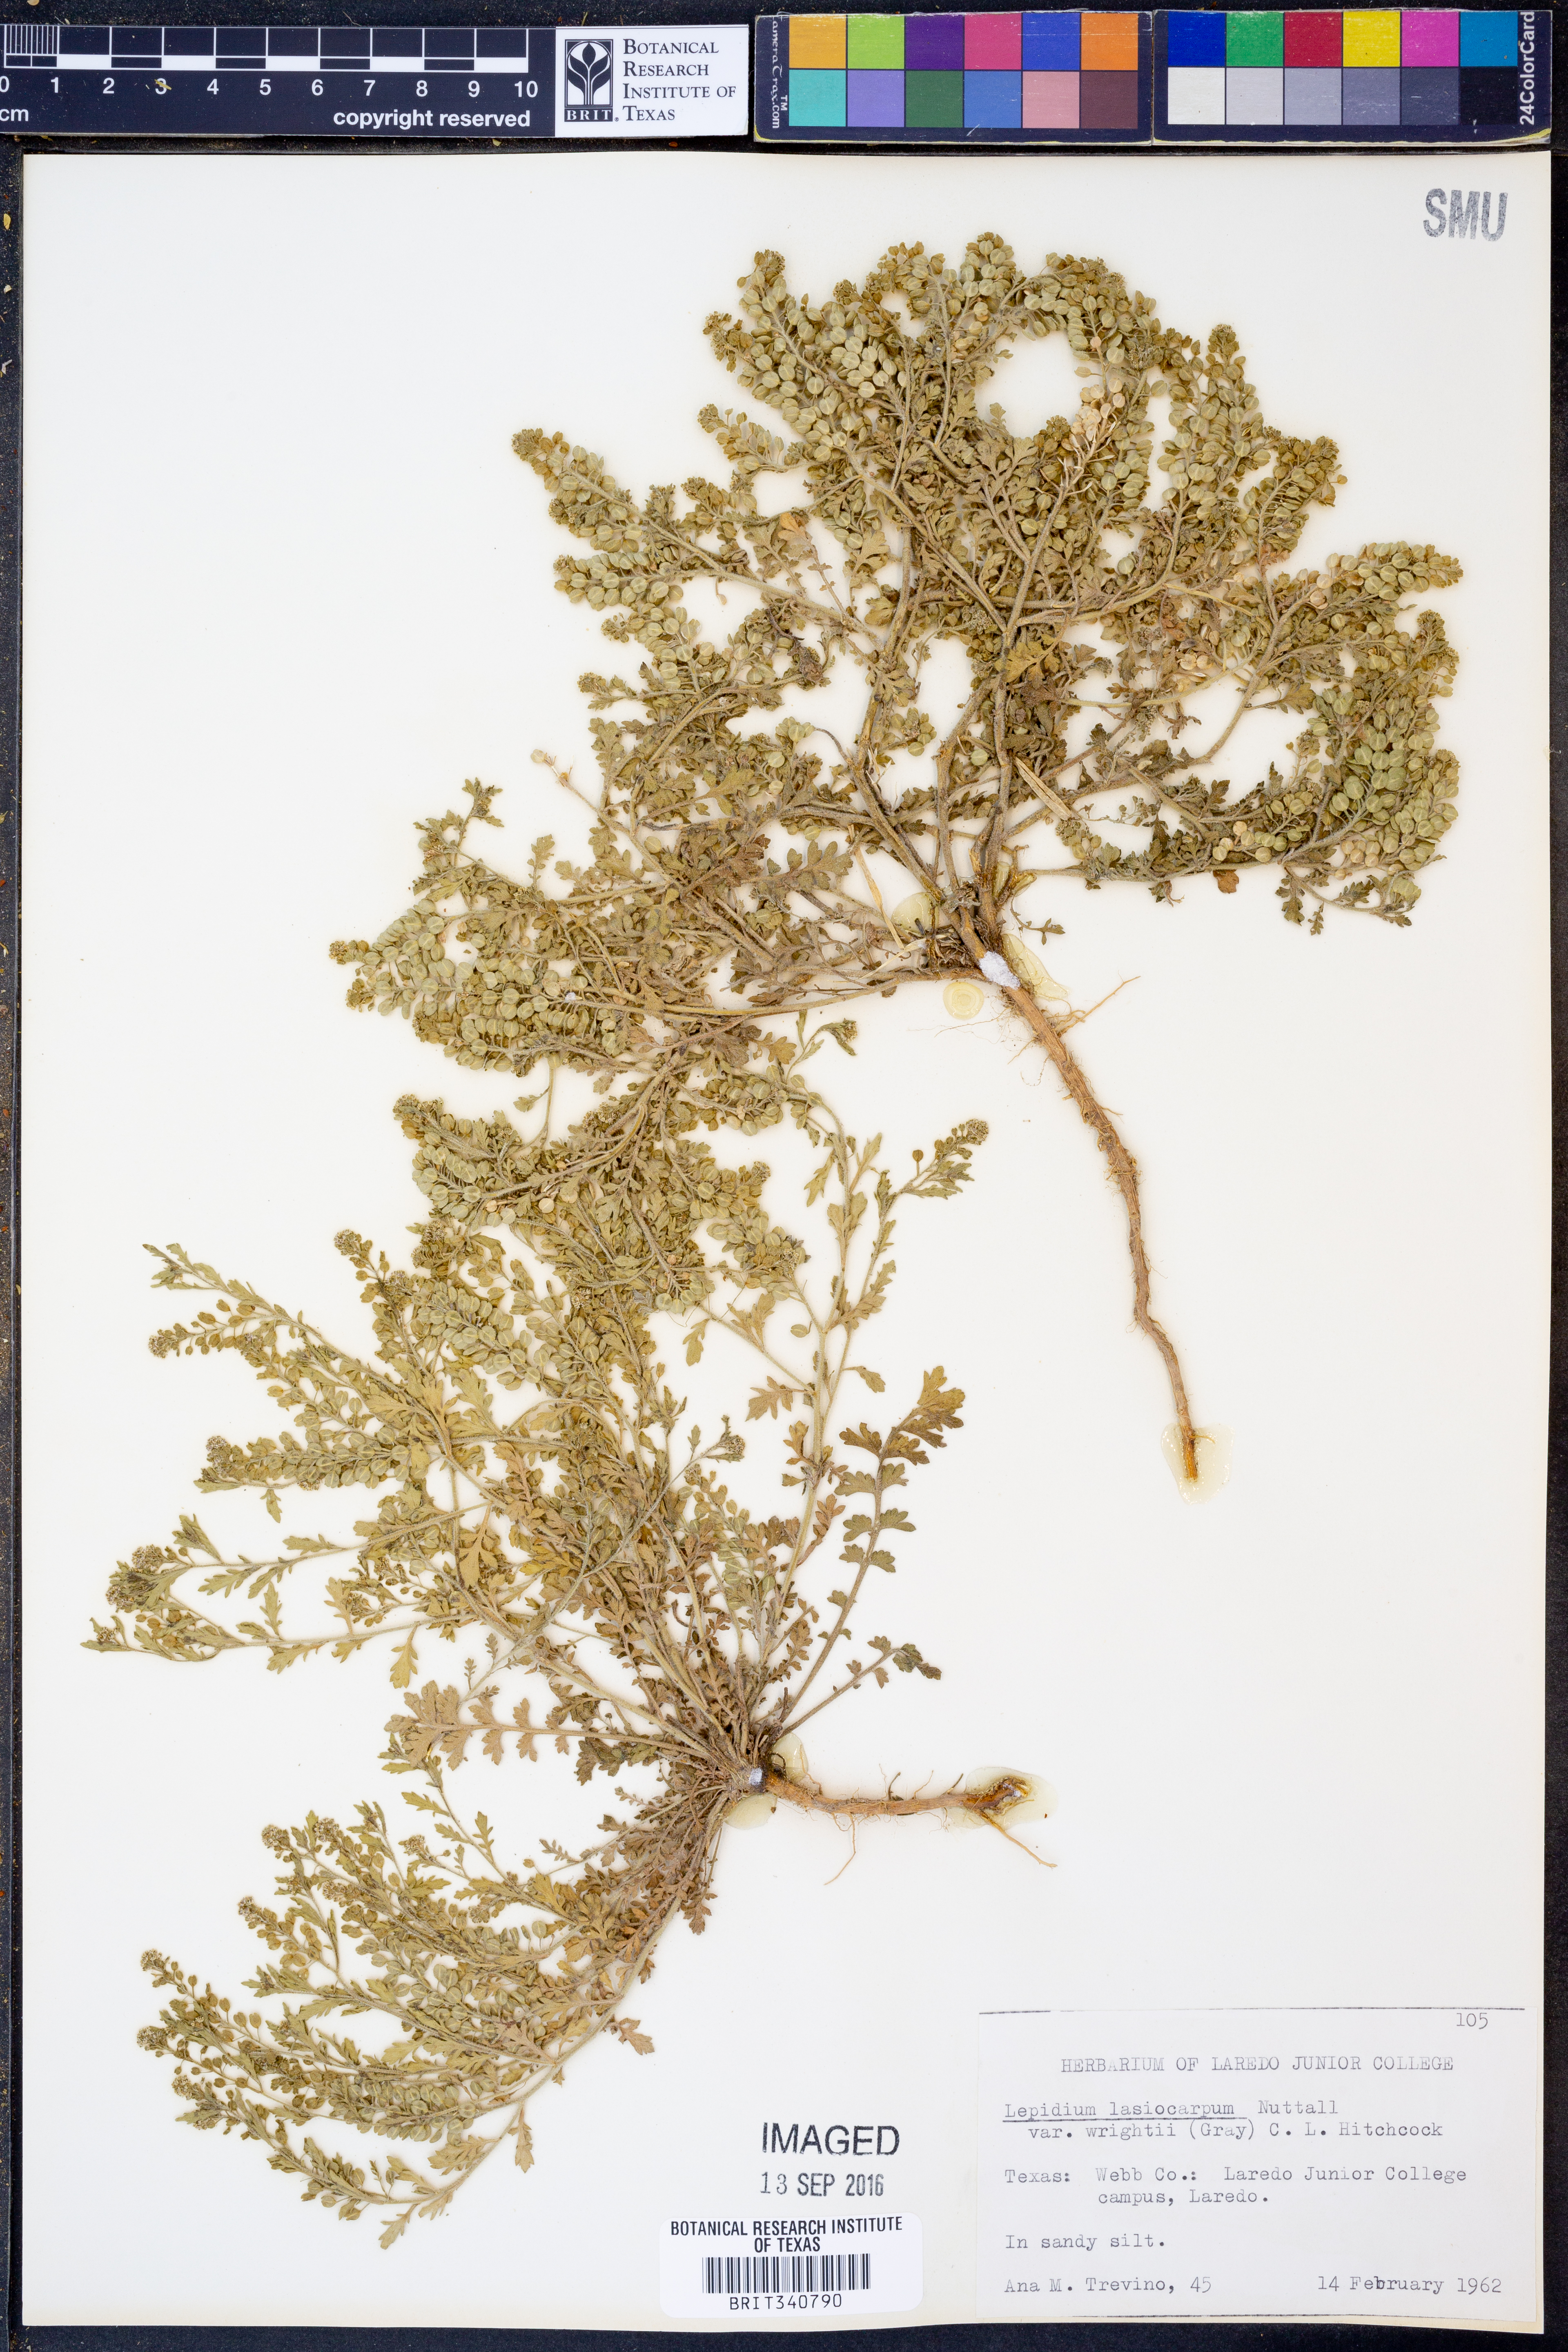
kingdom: Plantae
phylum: Tracheophyta
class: Magnoliopsida
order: Brassicales
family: Brassicaceae
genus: Lepidium
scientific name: Lepidium lasiocarpum
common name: Hairy-pod pepperwort
